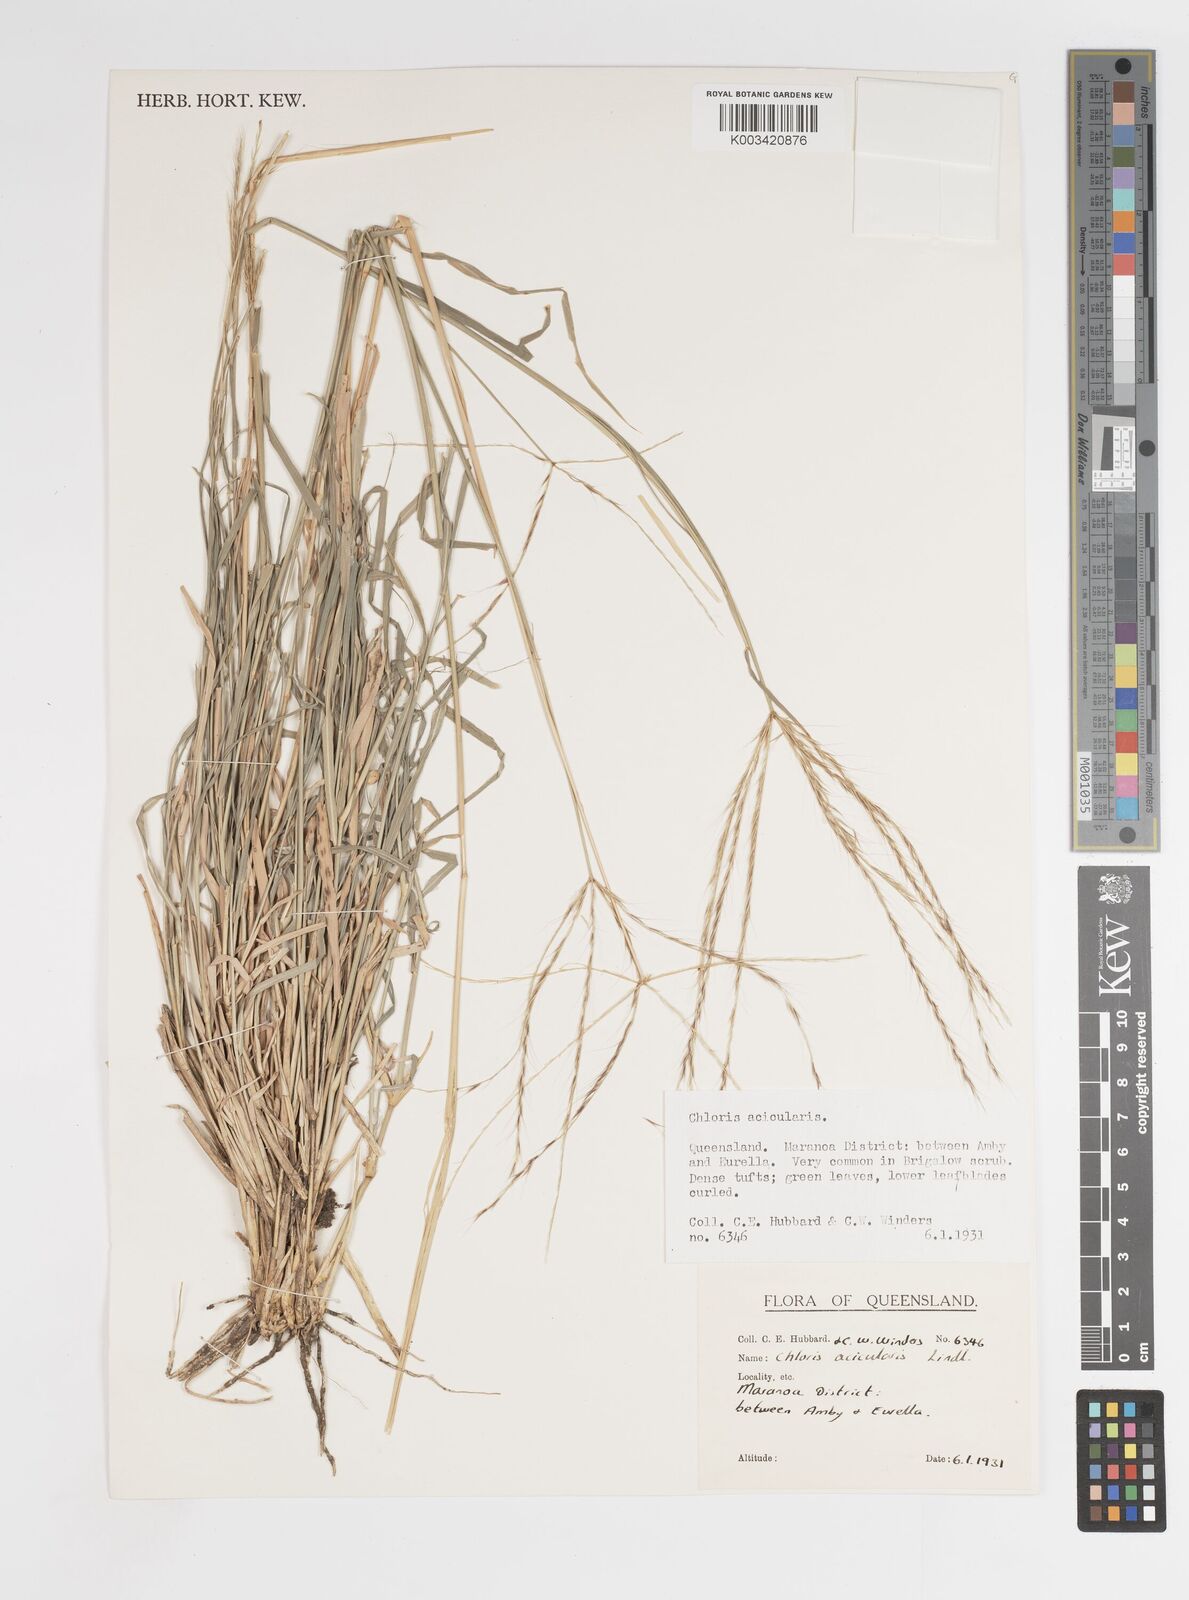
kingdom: Plantae
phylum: Tracheophyta
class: Liliopsida
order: Poales
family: Poaceae
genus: Enteropogon
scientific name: Enteropogon acicularis
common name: Curly windmill grass
